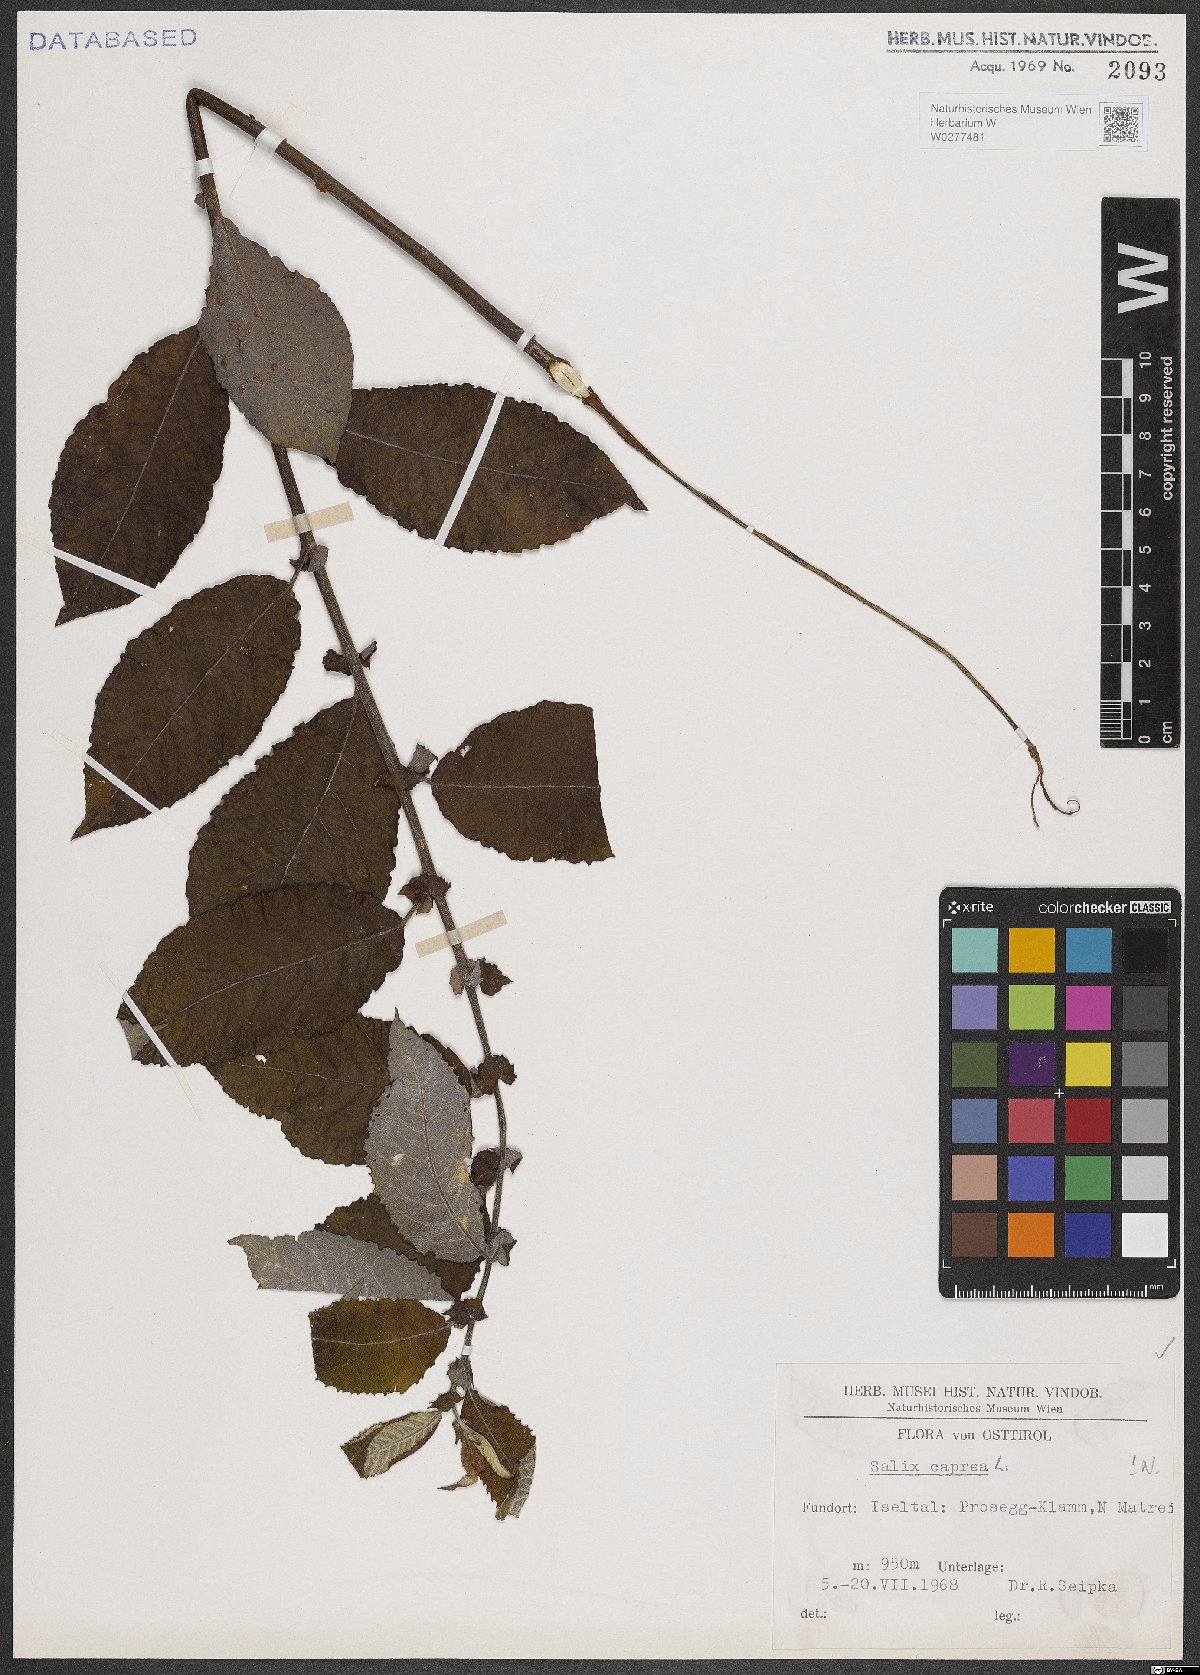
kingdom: Plantae
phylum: Tracheophyta
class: Magnoliopsida
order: Malpighiales
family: Salicaceae
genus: Salix
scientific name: Salix caprea
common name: Goat willow
